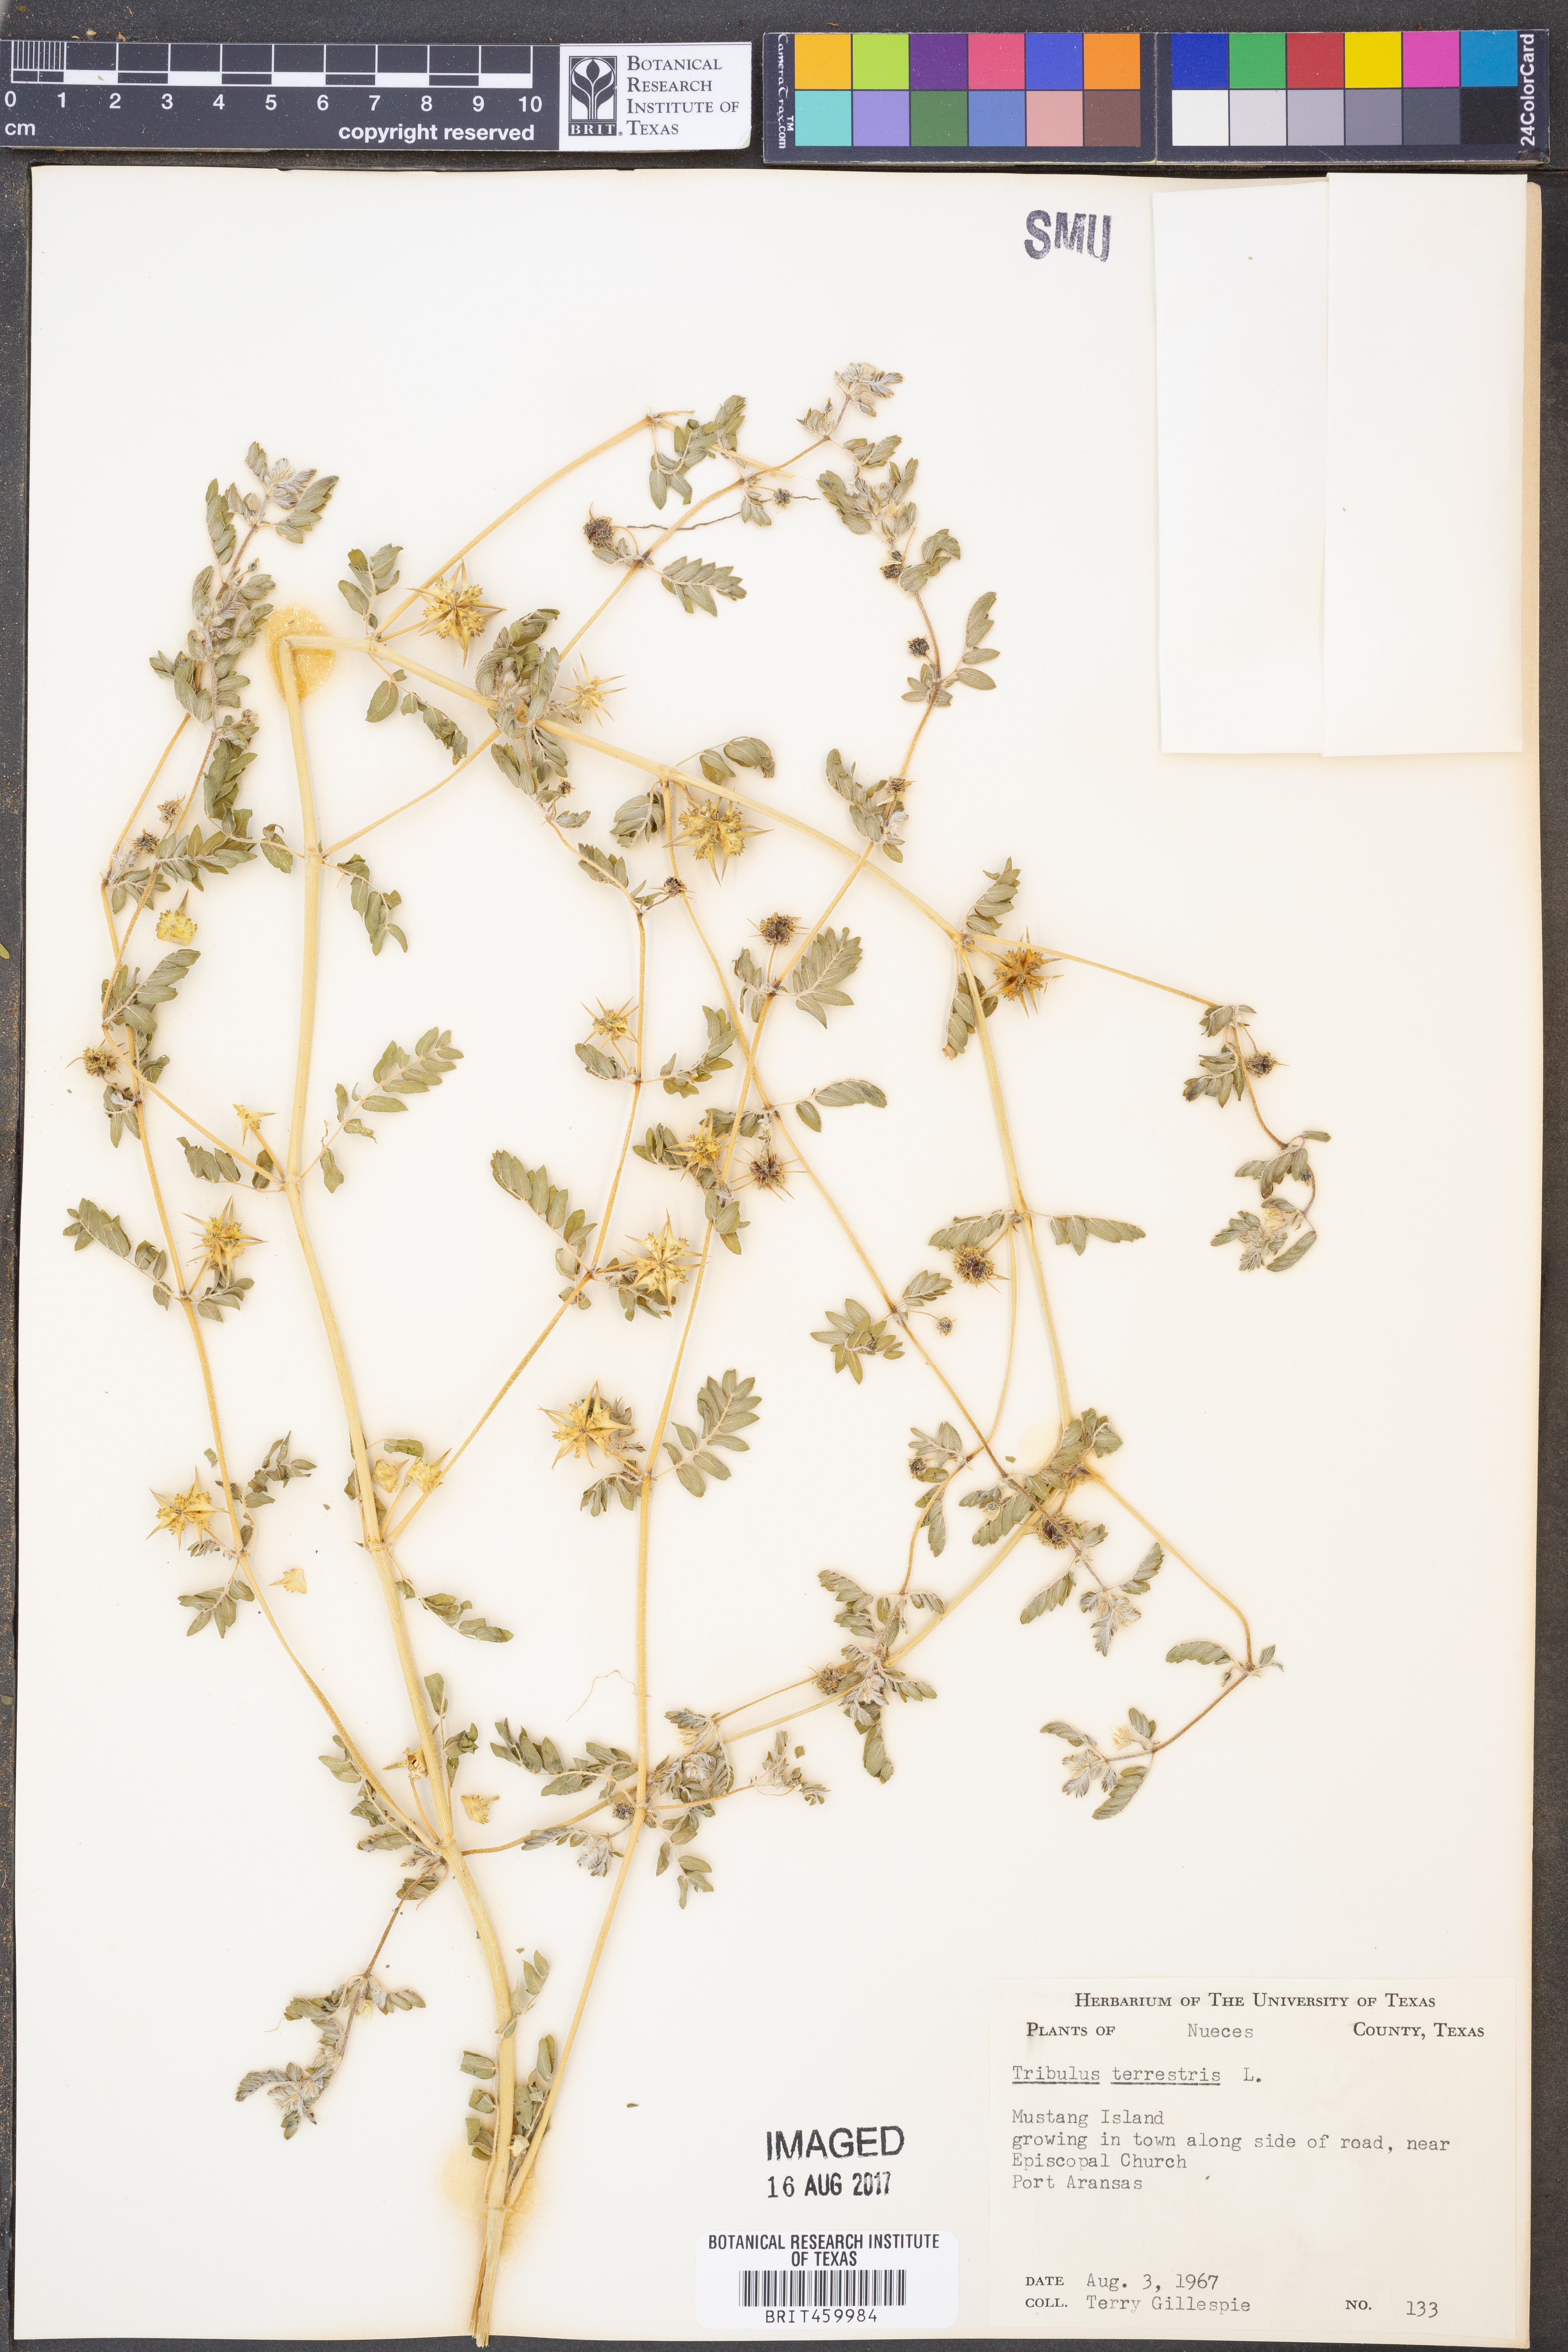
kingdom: Plantae
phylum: Tracheophyta
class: Magnoliopsida
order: Zygophyllales
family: Zygophyllaceae
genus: Tribulus
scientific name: Tribulus terrestris
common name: Puncturevine
